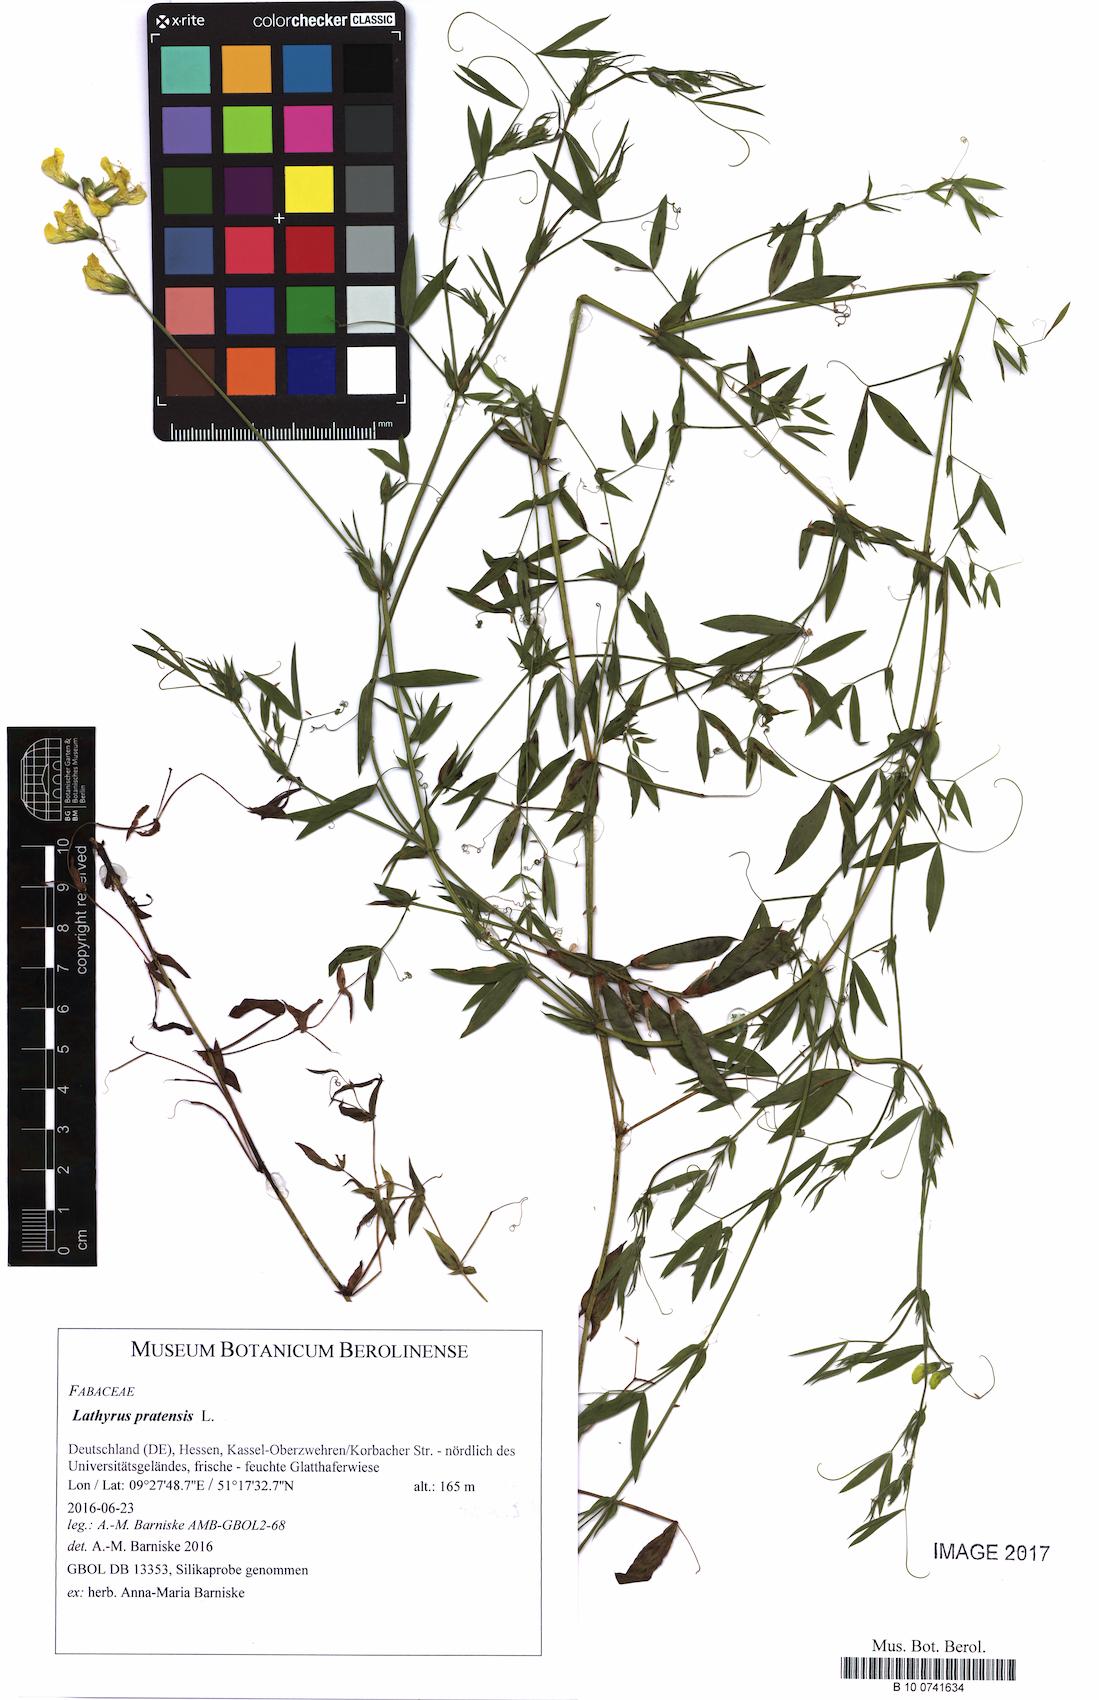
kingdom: Plantae
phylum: Tracheophyta
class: Magnoliopsida
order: Fabales
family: Fabaceae
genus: Lathyrus
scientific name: Lathyrus pratensis
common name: Meadow vetchling
